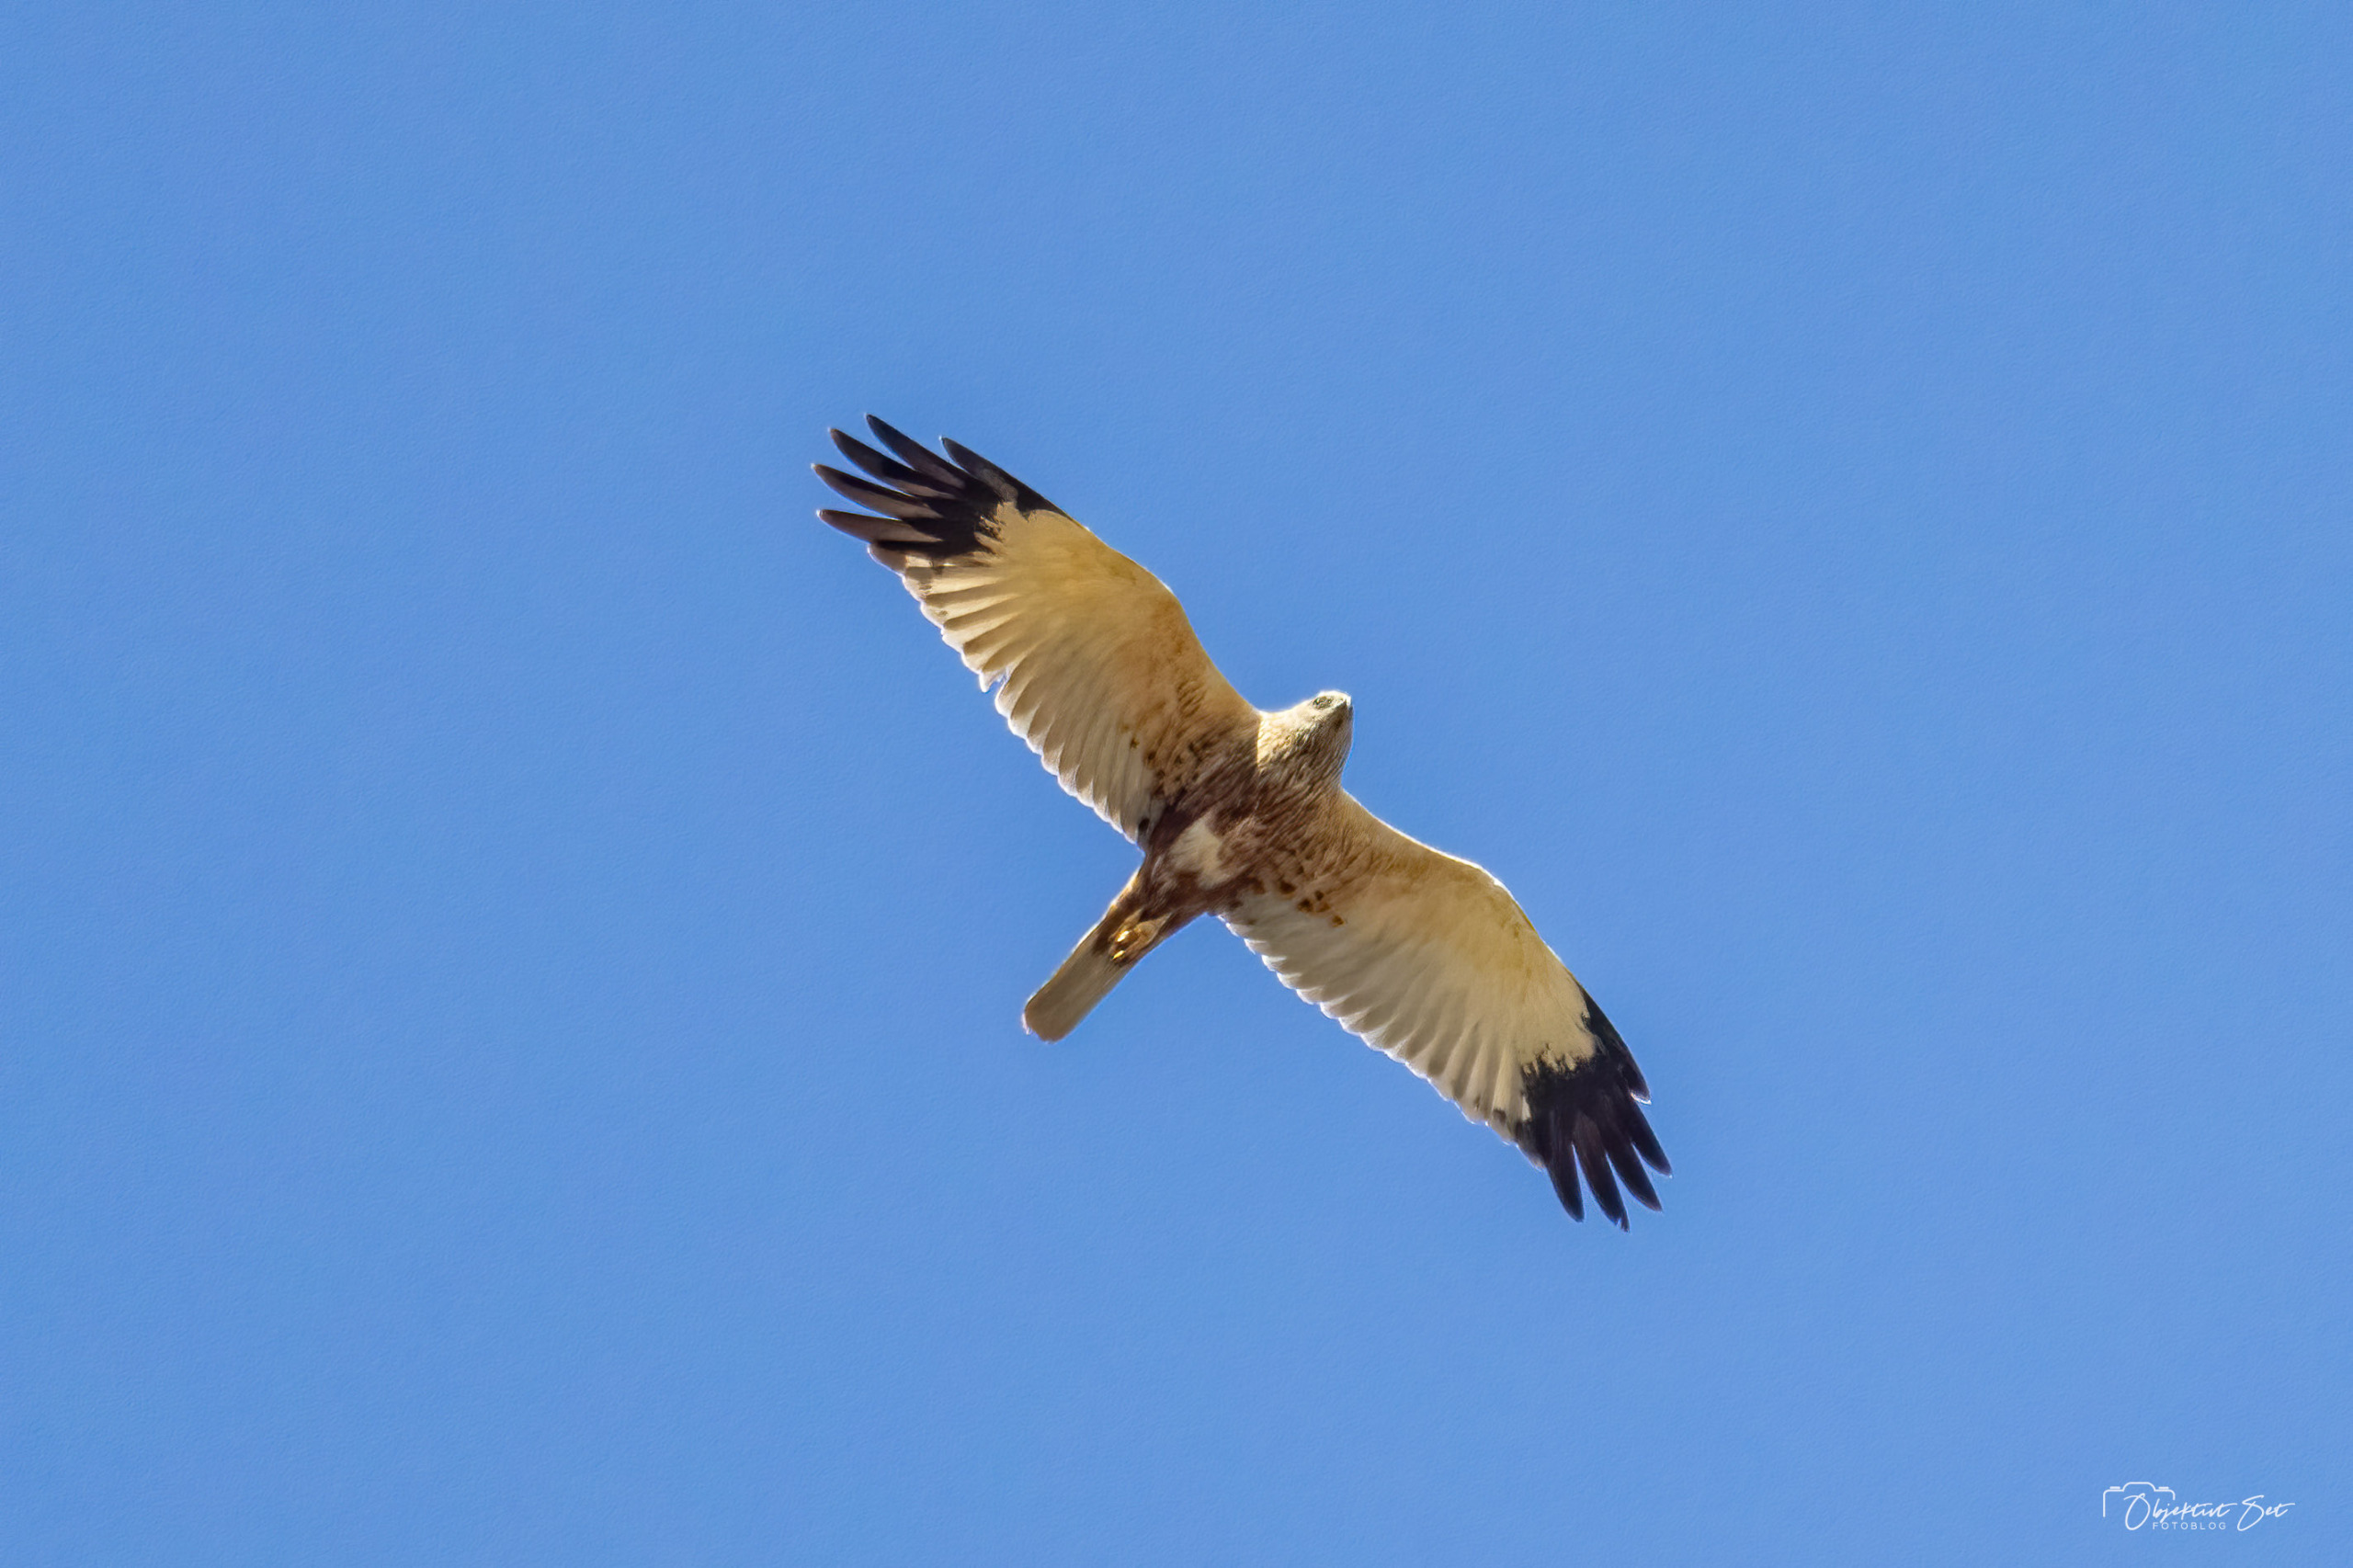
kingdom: Animalia
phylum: Chordata
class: Aves
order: Accipitriformes
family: Accipitridae
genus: Circus
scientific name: Circus aeruginosus
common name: Rørhøg
